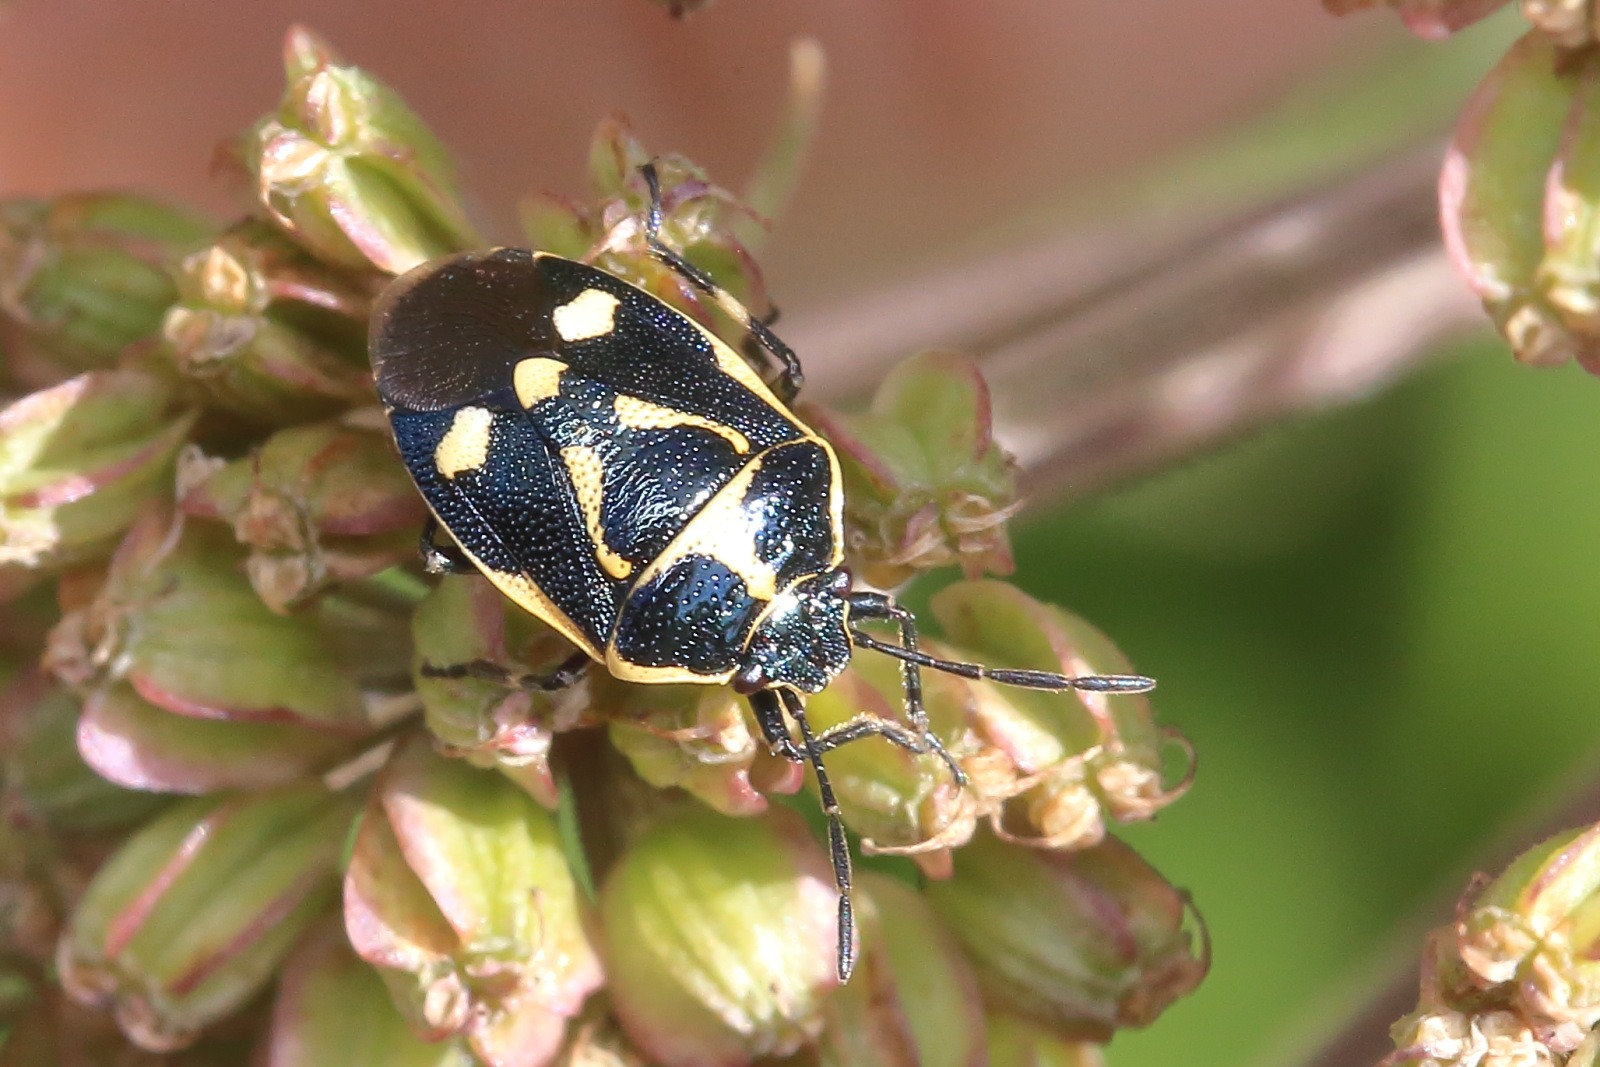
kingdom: Animalia
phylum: Arthropoda
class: Insecta
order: Hemiptera
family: Pentatomidae
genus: Eurydema
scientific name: Eurydema oleracea
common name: Almindelig kåltæge
